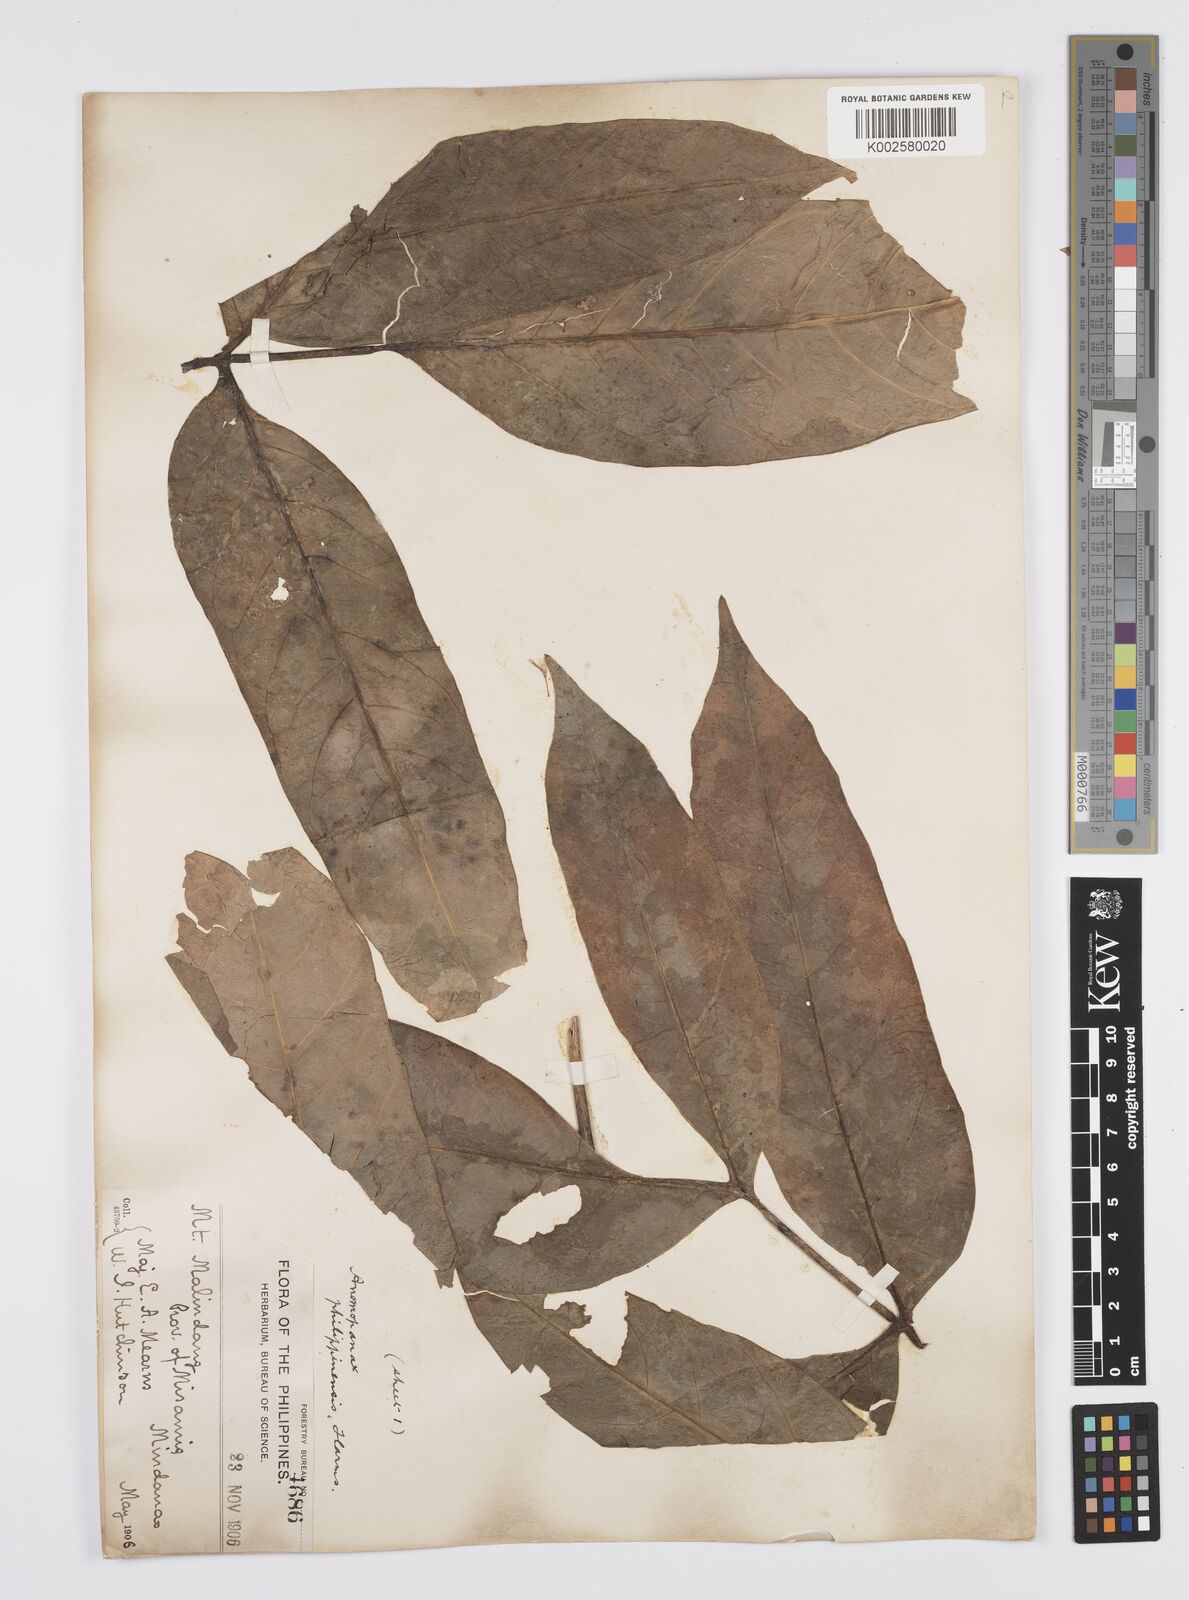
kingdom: Plantae
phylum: Tracheophyta
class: Magnoliopsida
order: Apiales
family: Apiaceae
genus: Mackinlaya
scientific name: Mackinlaya celebica
